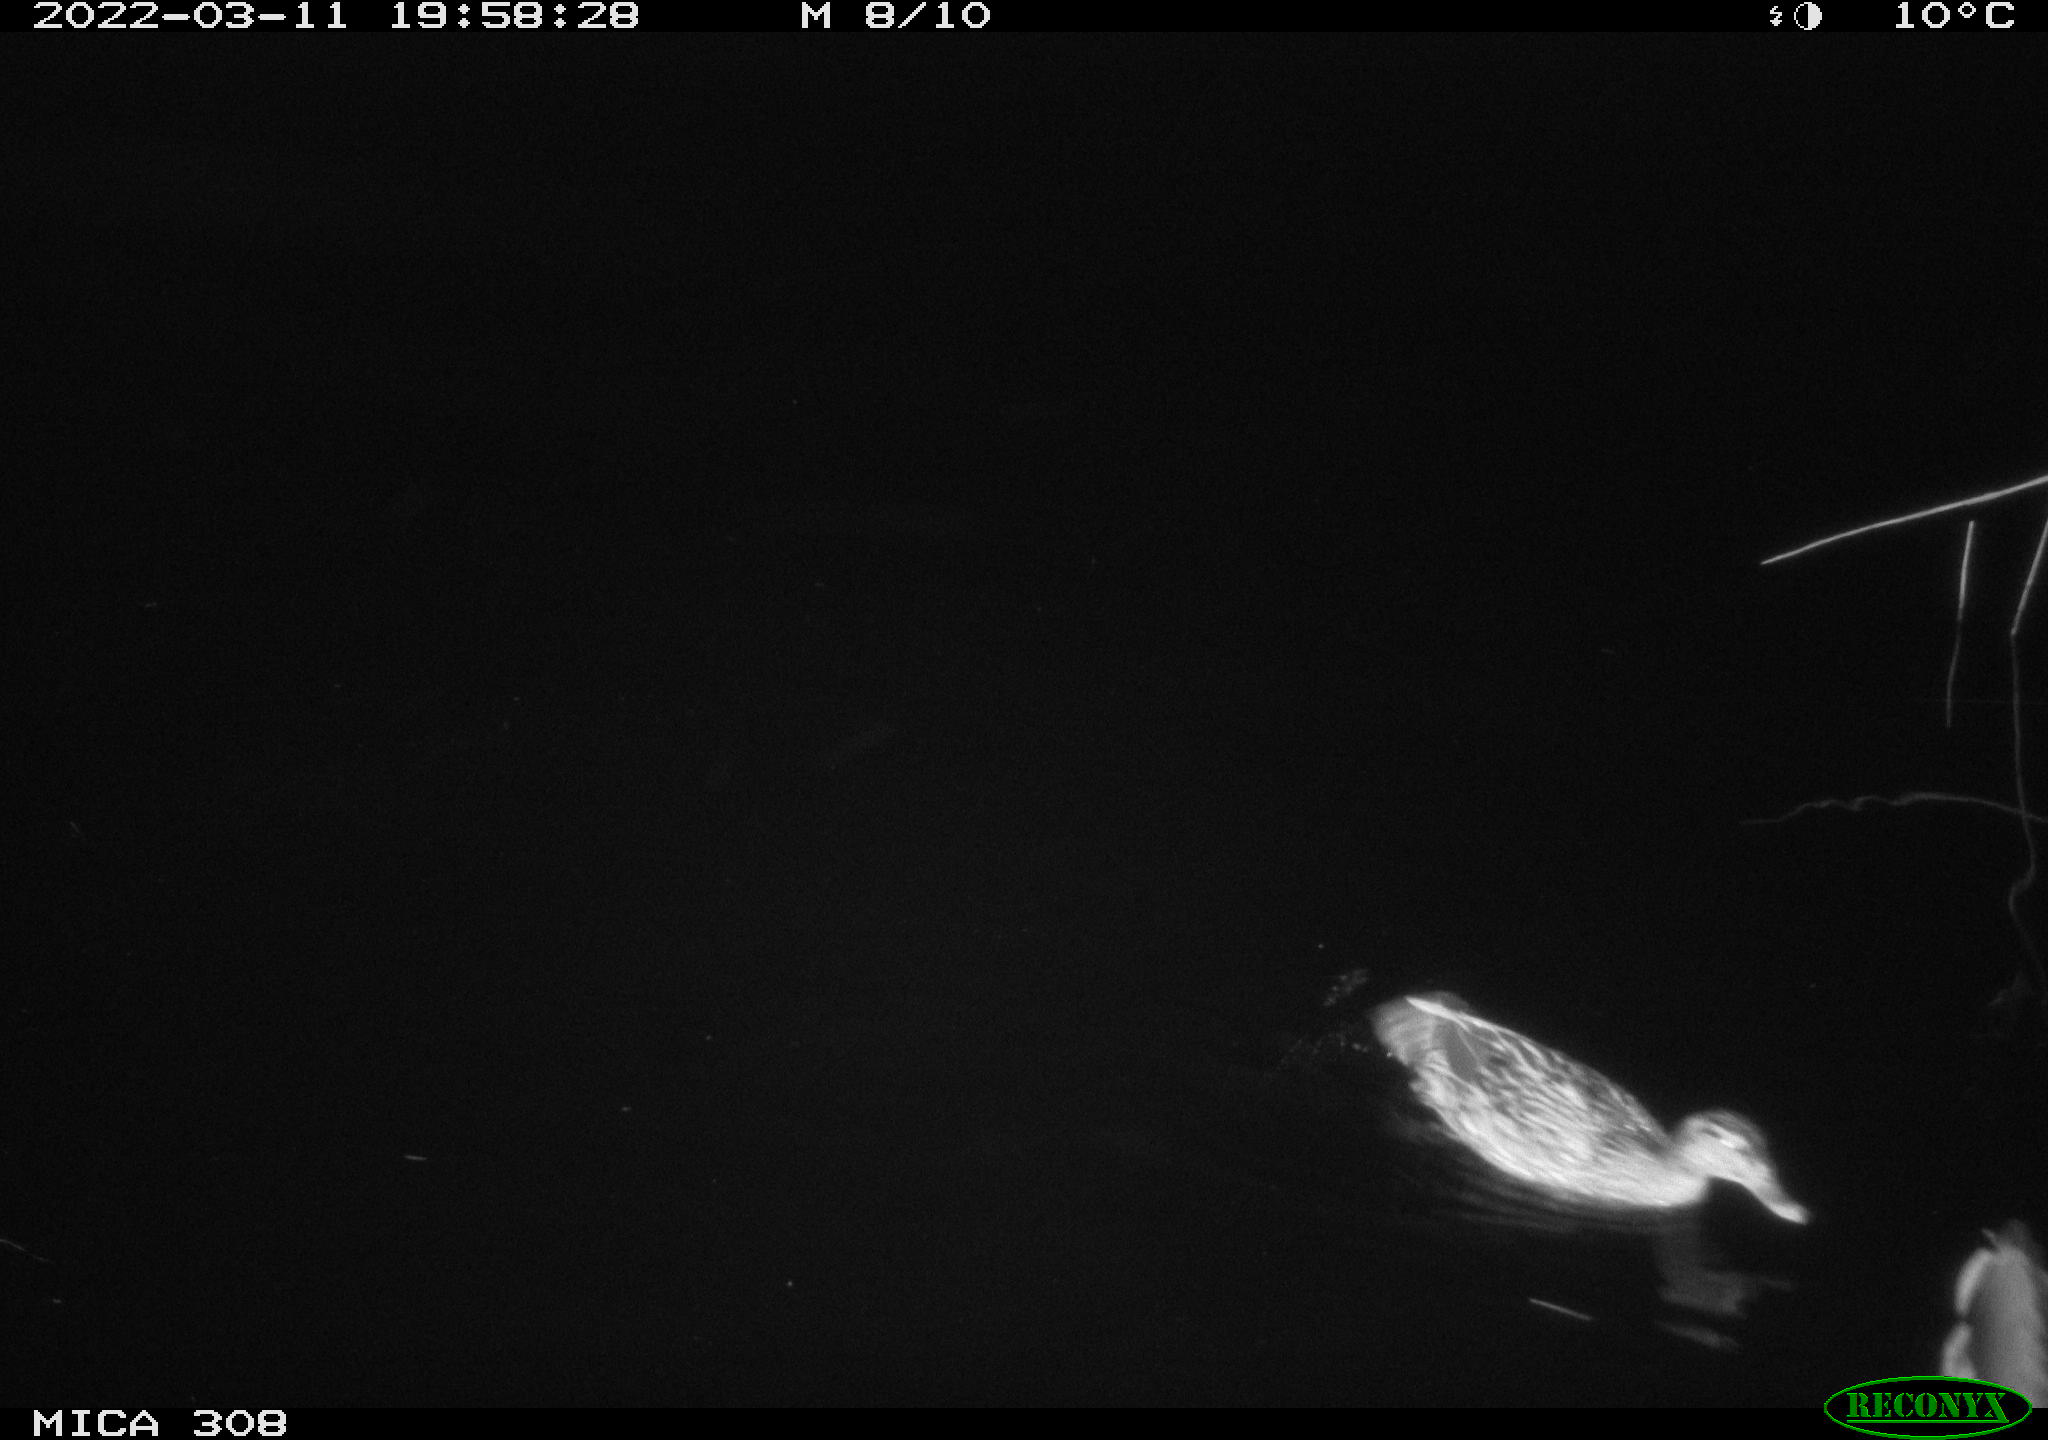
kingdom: Animalia
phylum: Chordata
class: Aves
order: Anseriformes
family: Anatidae
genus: Anas
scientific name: Anas platyrhynchos
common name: Mallard
